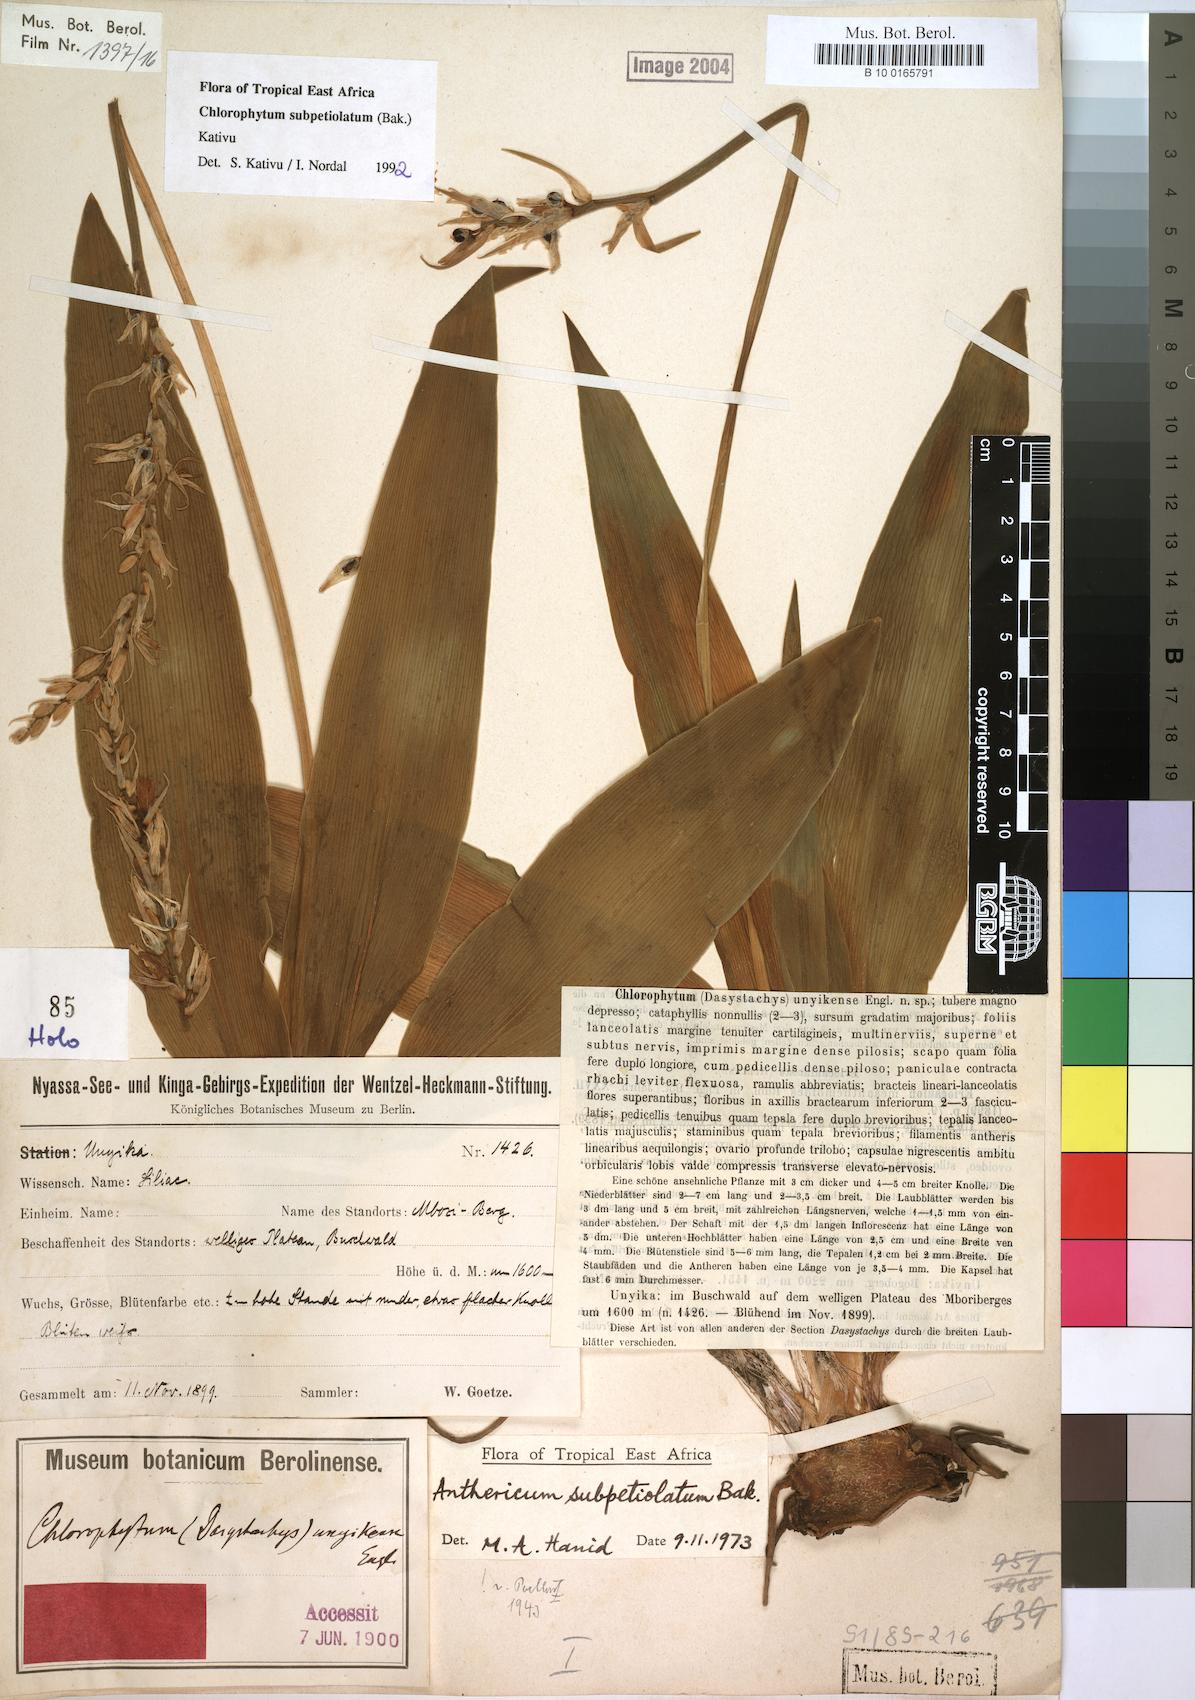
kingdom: Plantae
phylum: Tracheophyta
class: Liliopsida
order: Asparagales
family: Asparagaceae
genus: Chlorophytum
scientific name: Chlorophytum subpetiolatum
